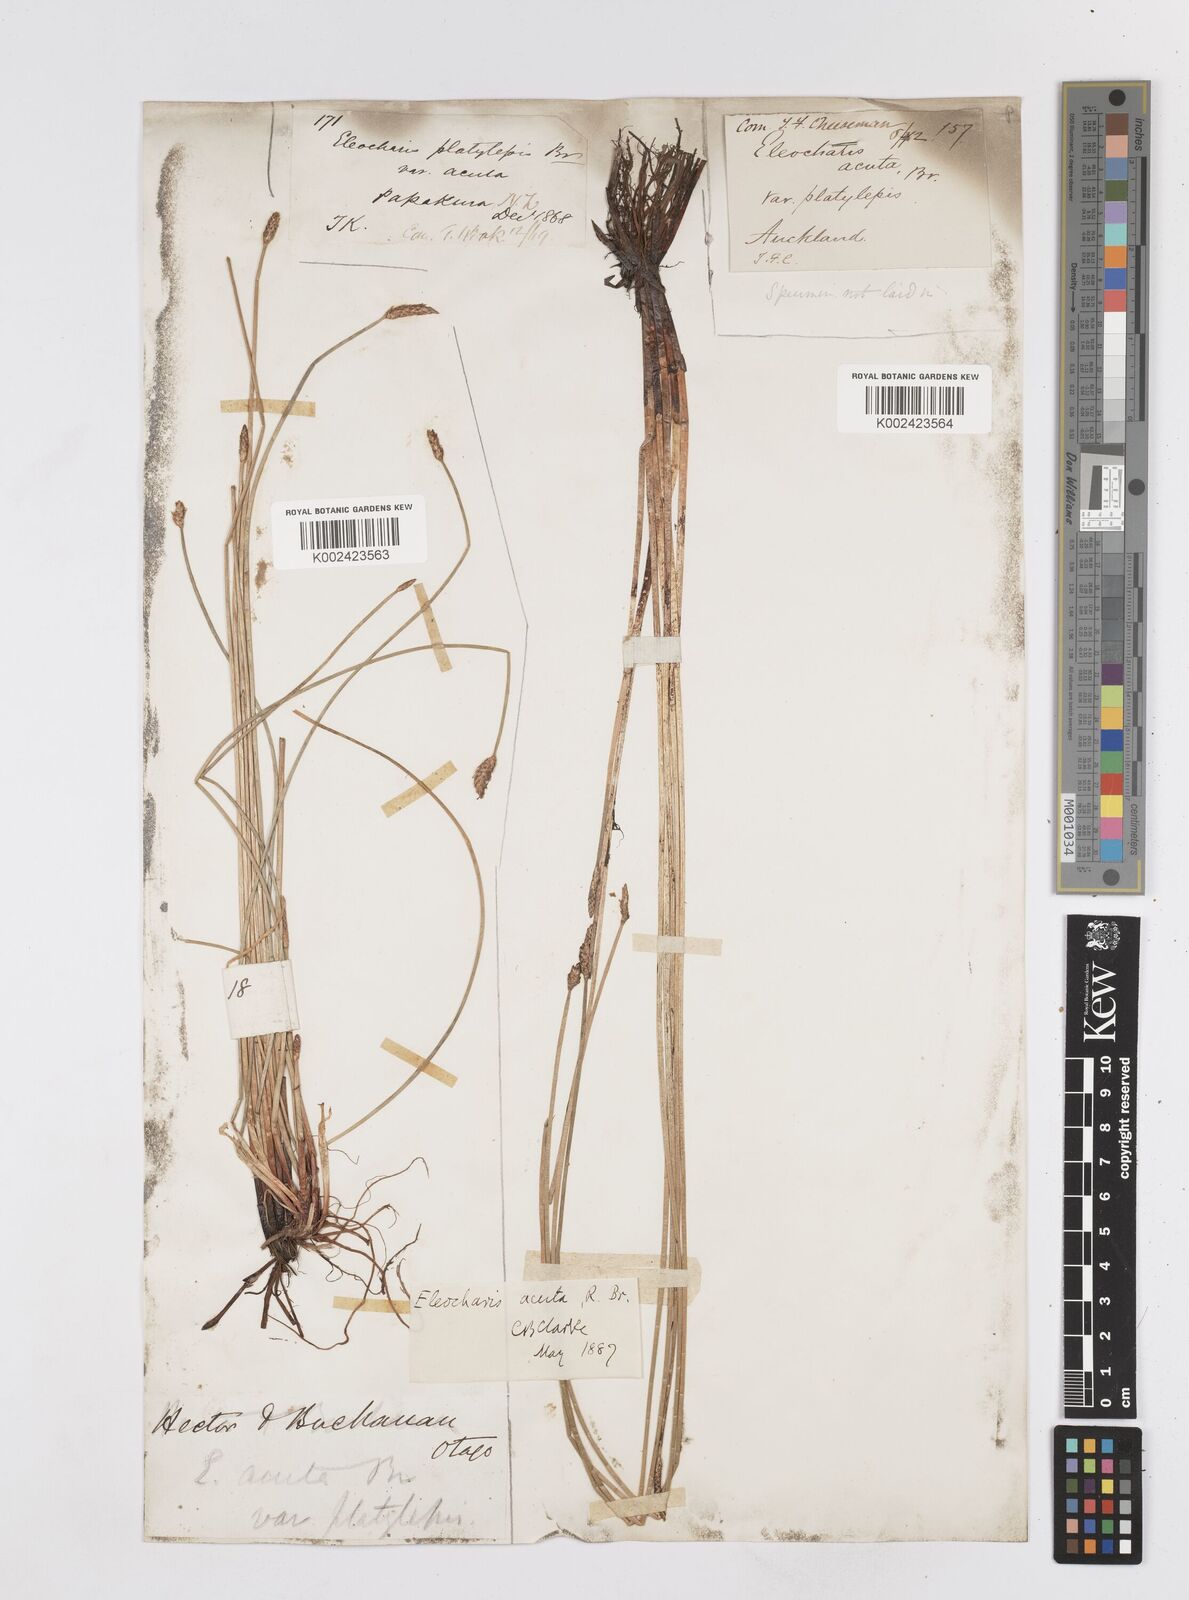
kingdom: Plantae
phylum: Tracheophyta
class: Liliopsida
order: Poales
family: Cyperaceae
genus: Eleocharis
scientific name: Eleocharis acuta
